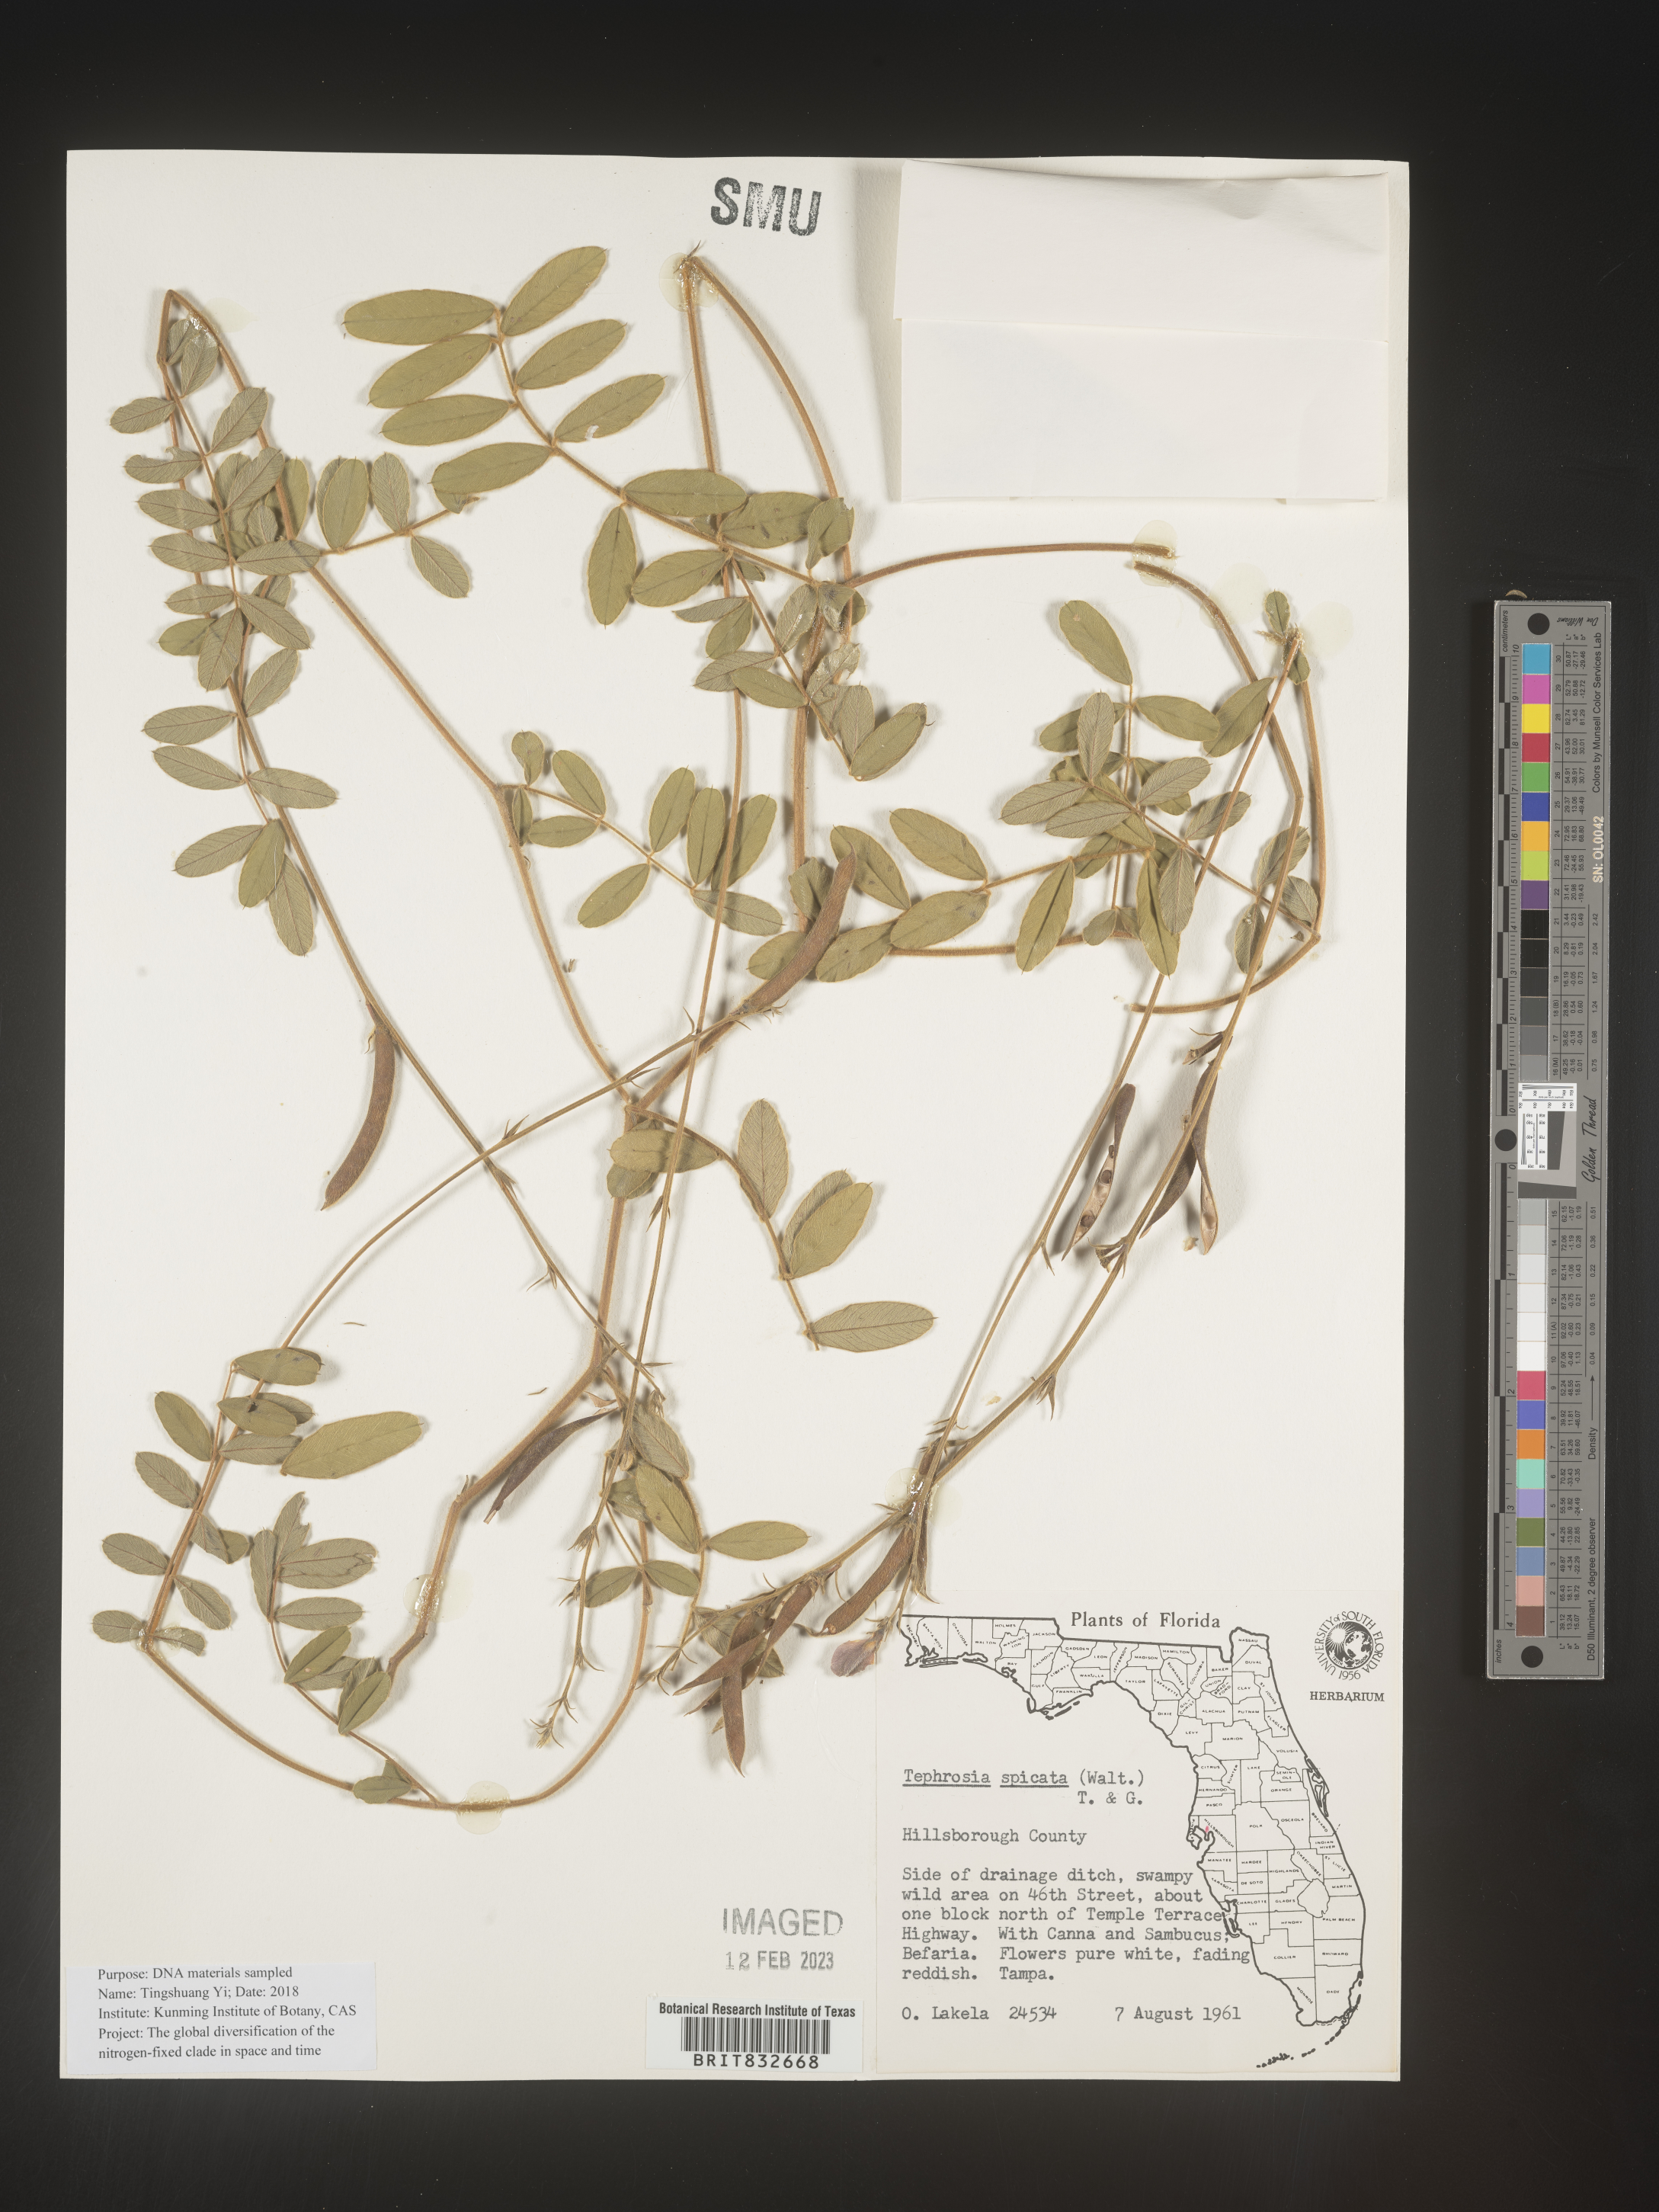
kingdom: Plantae
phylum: Tracheophyta
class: Magnoliopsida
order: Fabales
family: Fabaceae
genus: Tephrosia
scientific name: Tephrosia spicata
